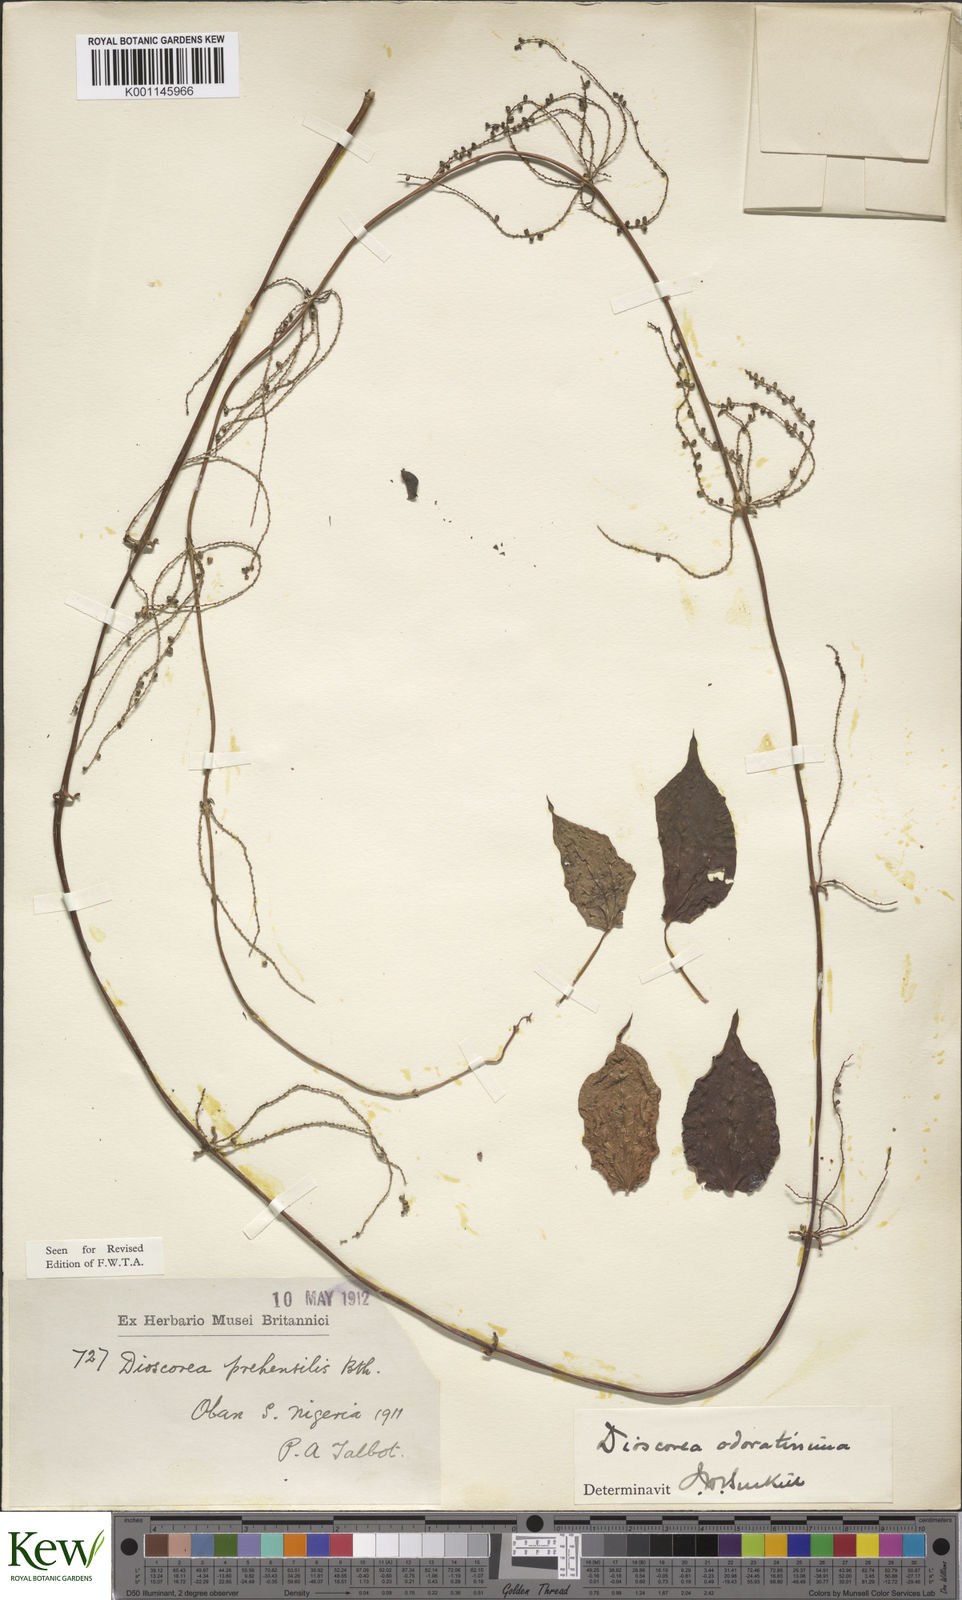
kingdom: Plantae
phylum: Tracheophyta
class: Liliopsida
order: Dioscoreales
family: Dioscoreaceae
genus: Dioscorea
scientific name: Dioscorea praehensilis
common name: Bush yam
